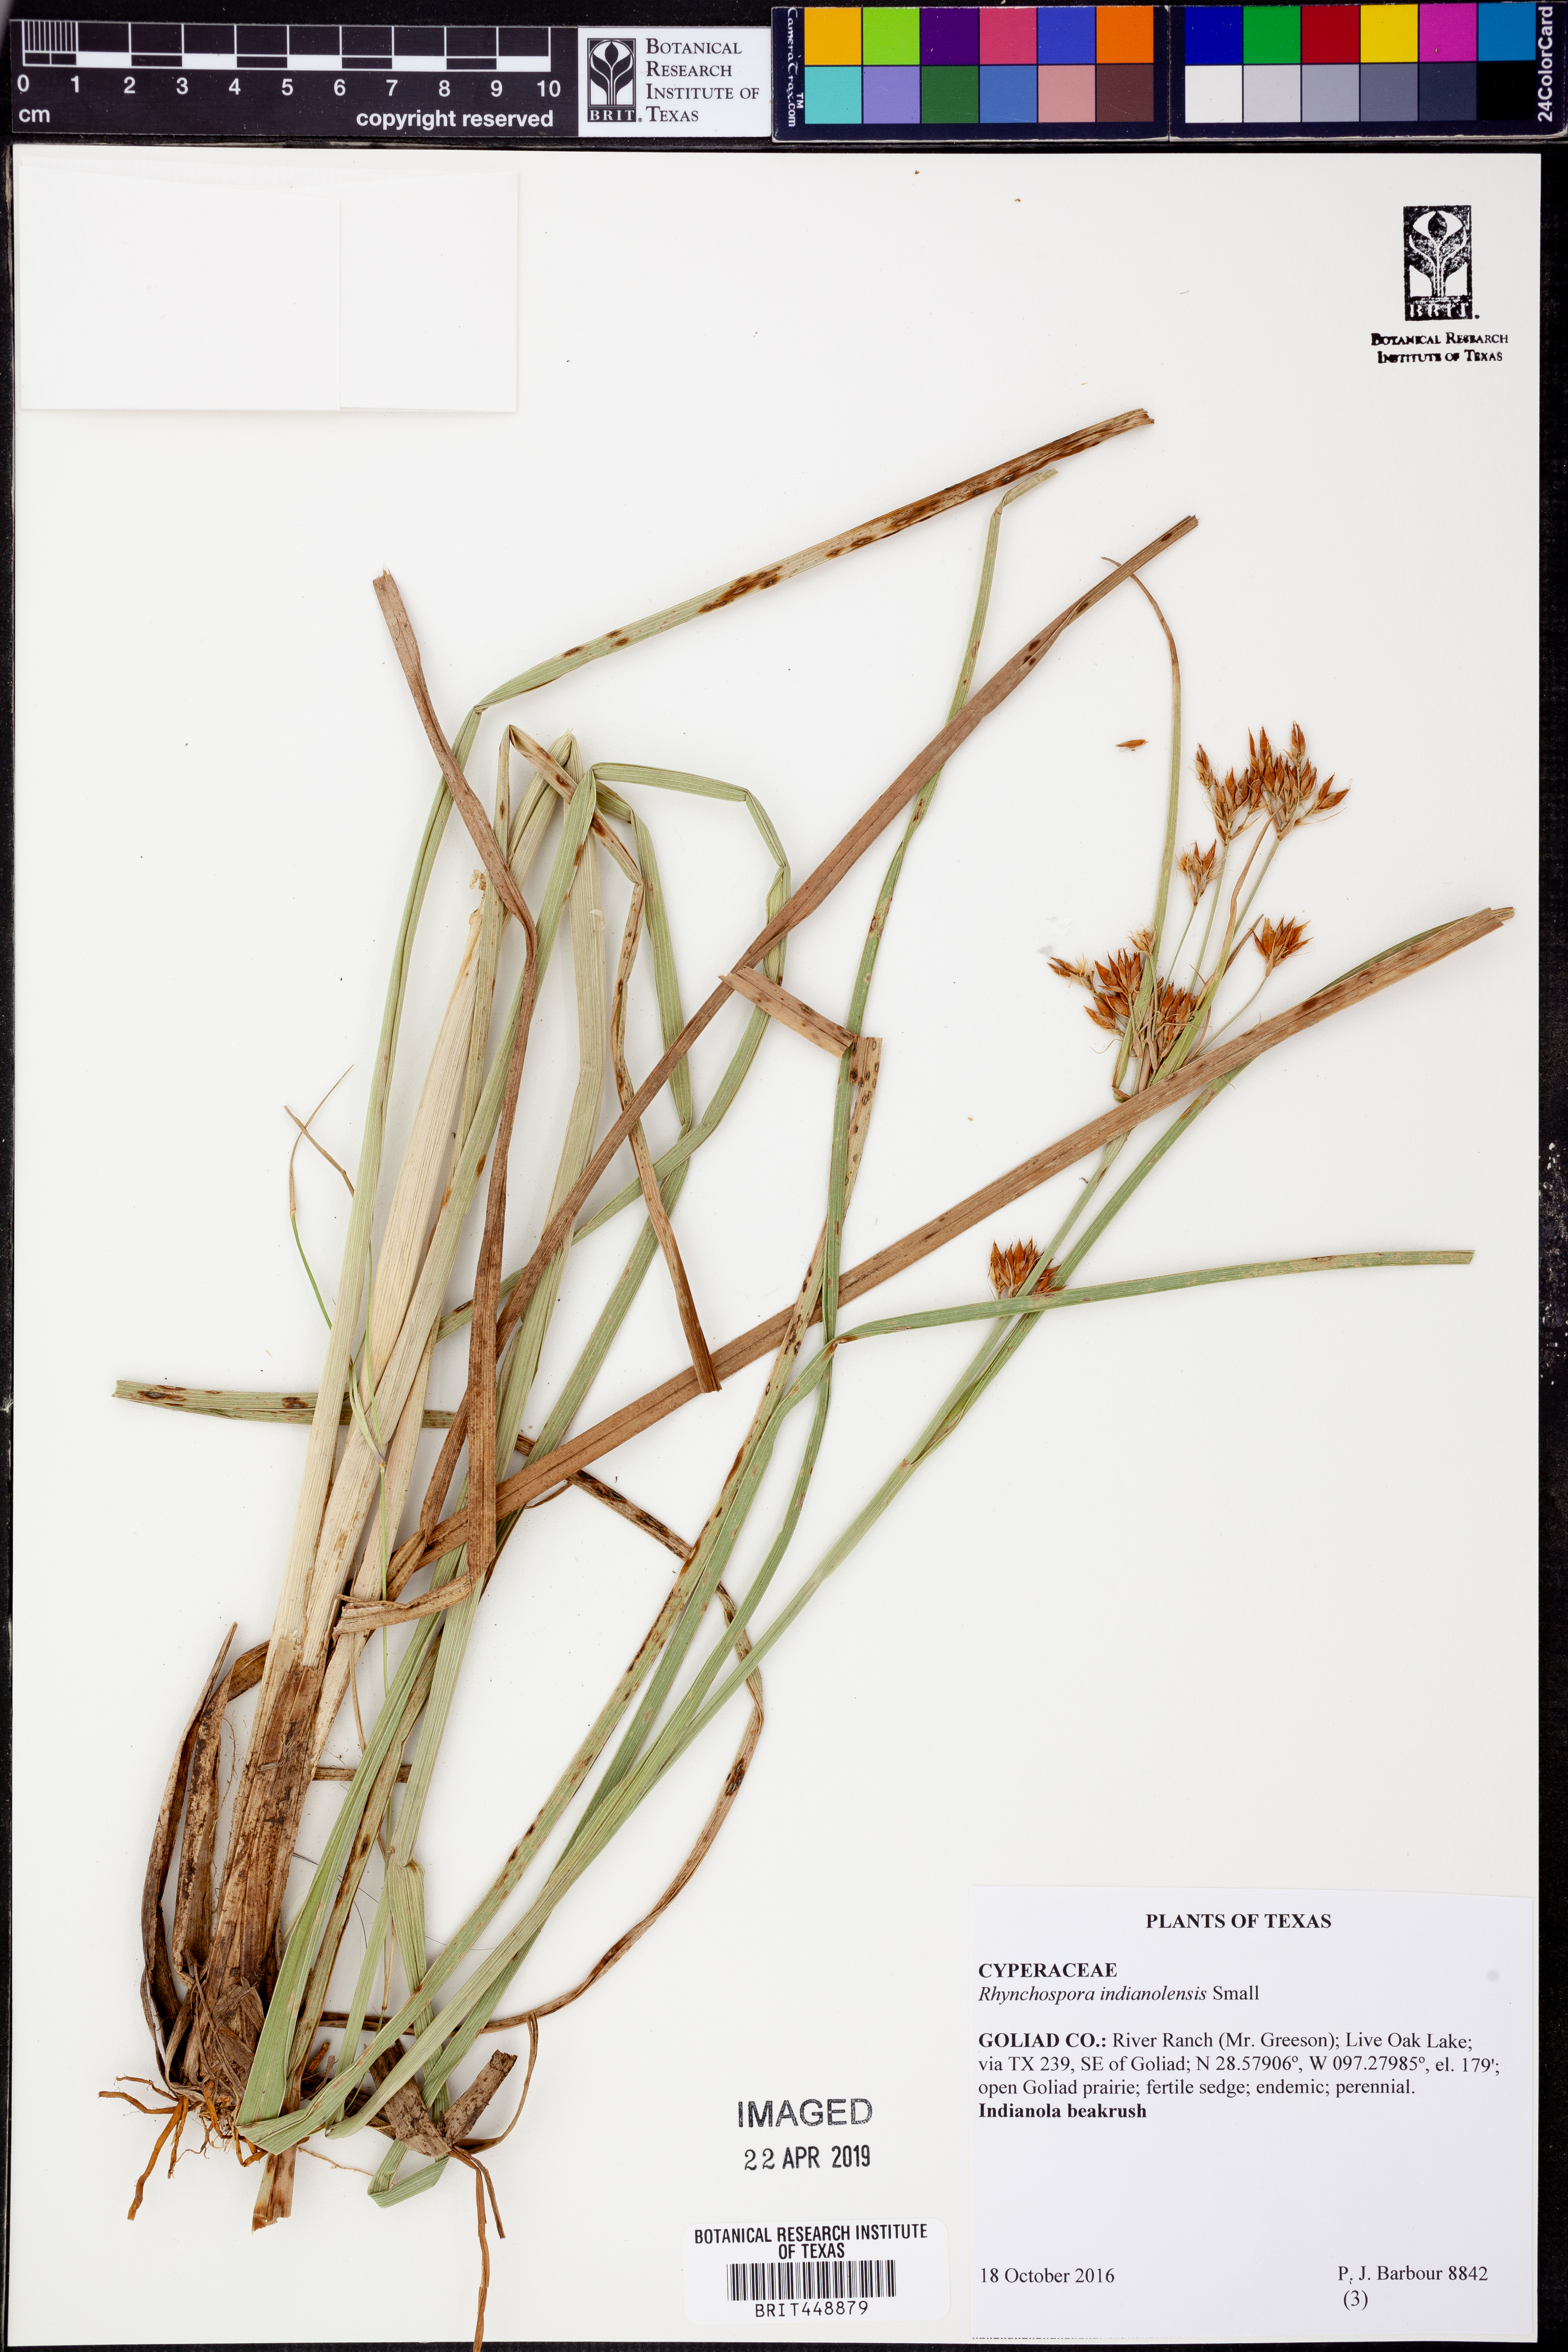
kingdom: Plantae
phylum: Tracheophyta
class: Liliopsida
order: Poales
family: Cyperaceae
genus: Rhynchospora
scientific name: Rhynchospora scutellata
